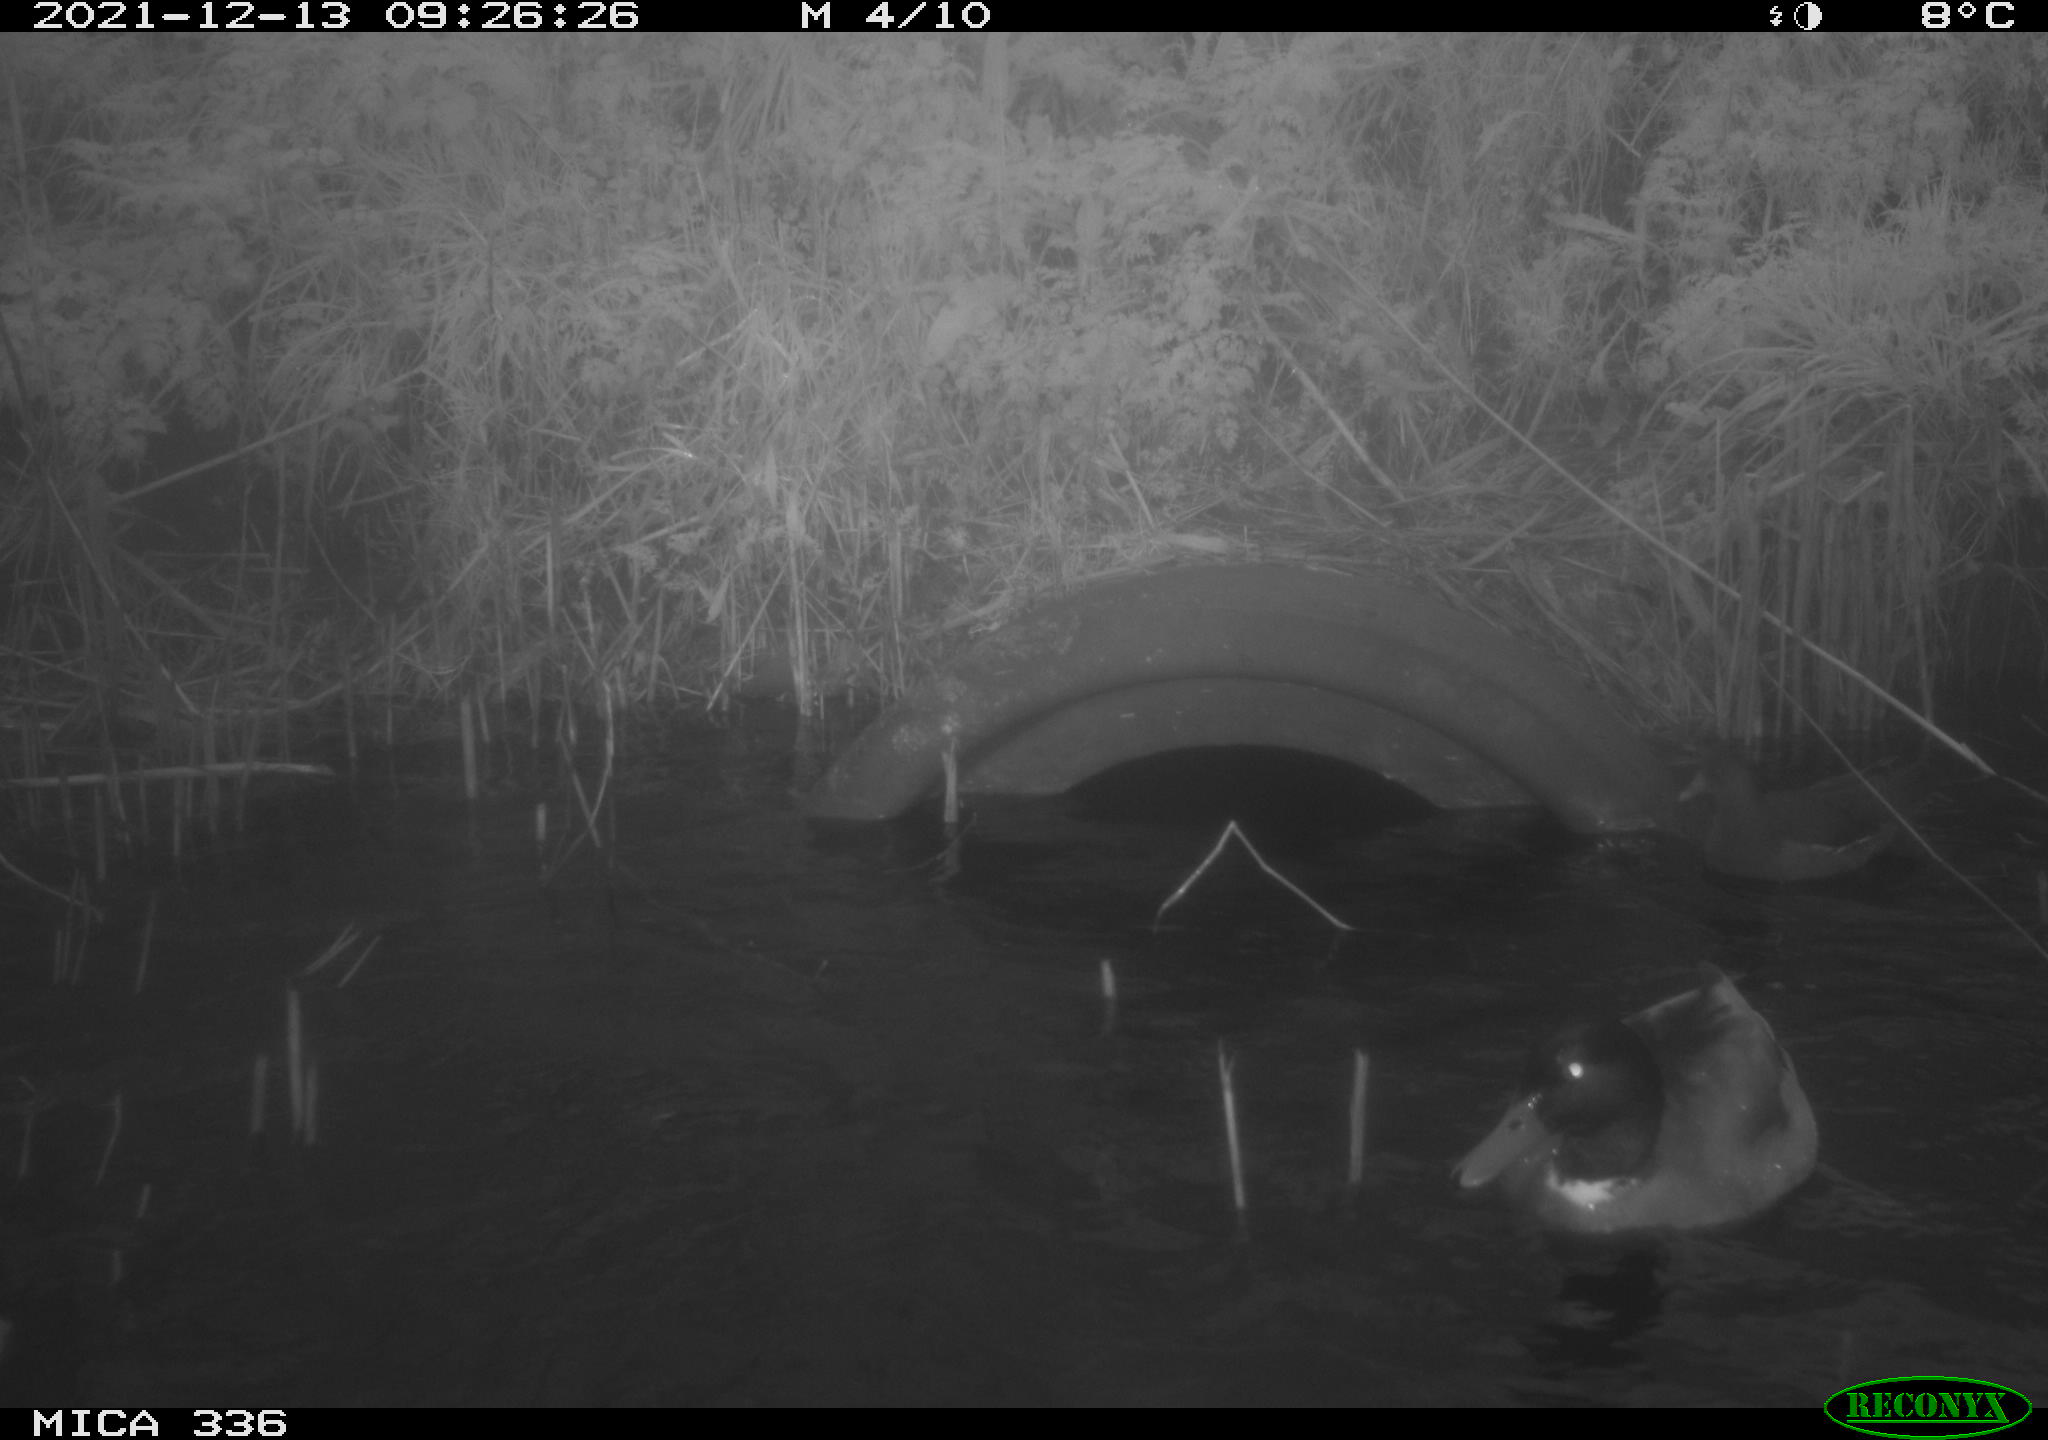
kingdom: Animalia
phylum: Chordata
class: Aves
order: Gruiformes
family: Rallidae
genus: Gallinula
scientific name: Gallinula chloropus
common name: Common moorhen
